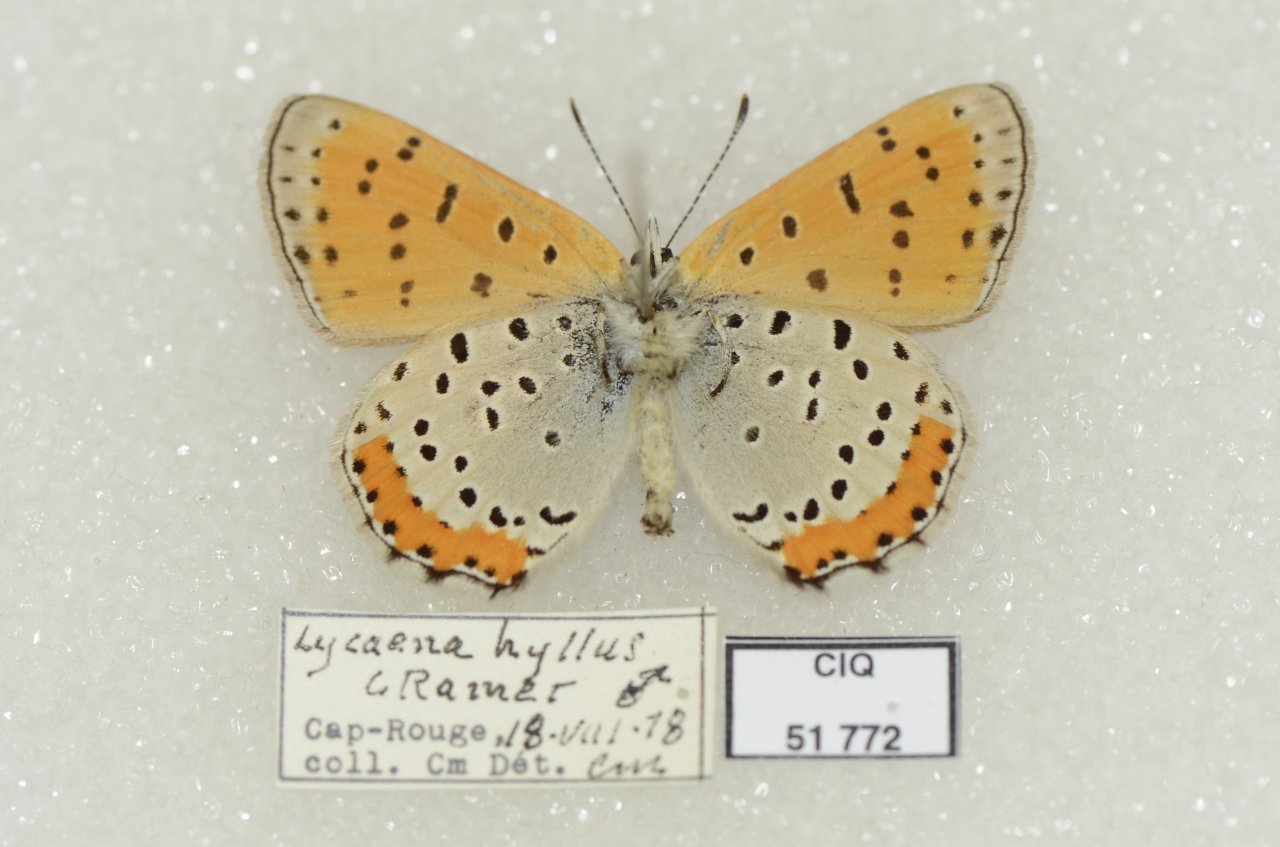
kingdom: Animalia
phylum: Arthropoda
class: Insecta
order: Lepidoptera
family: Sesiidae
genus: Sesia
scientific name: Sesia Lycaena hyllus
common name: Bronze Copper
